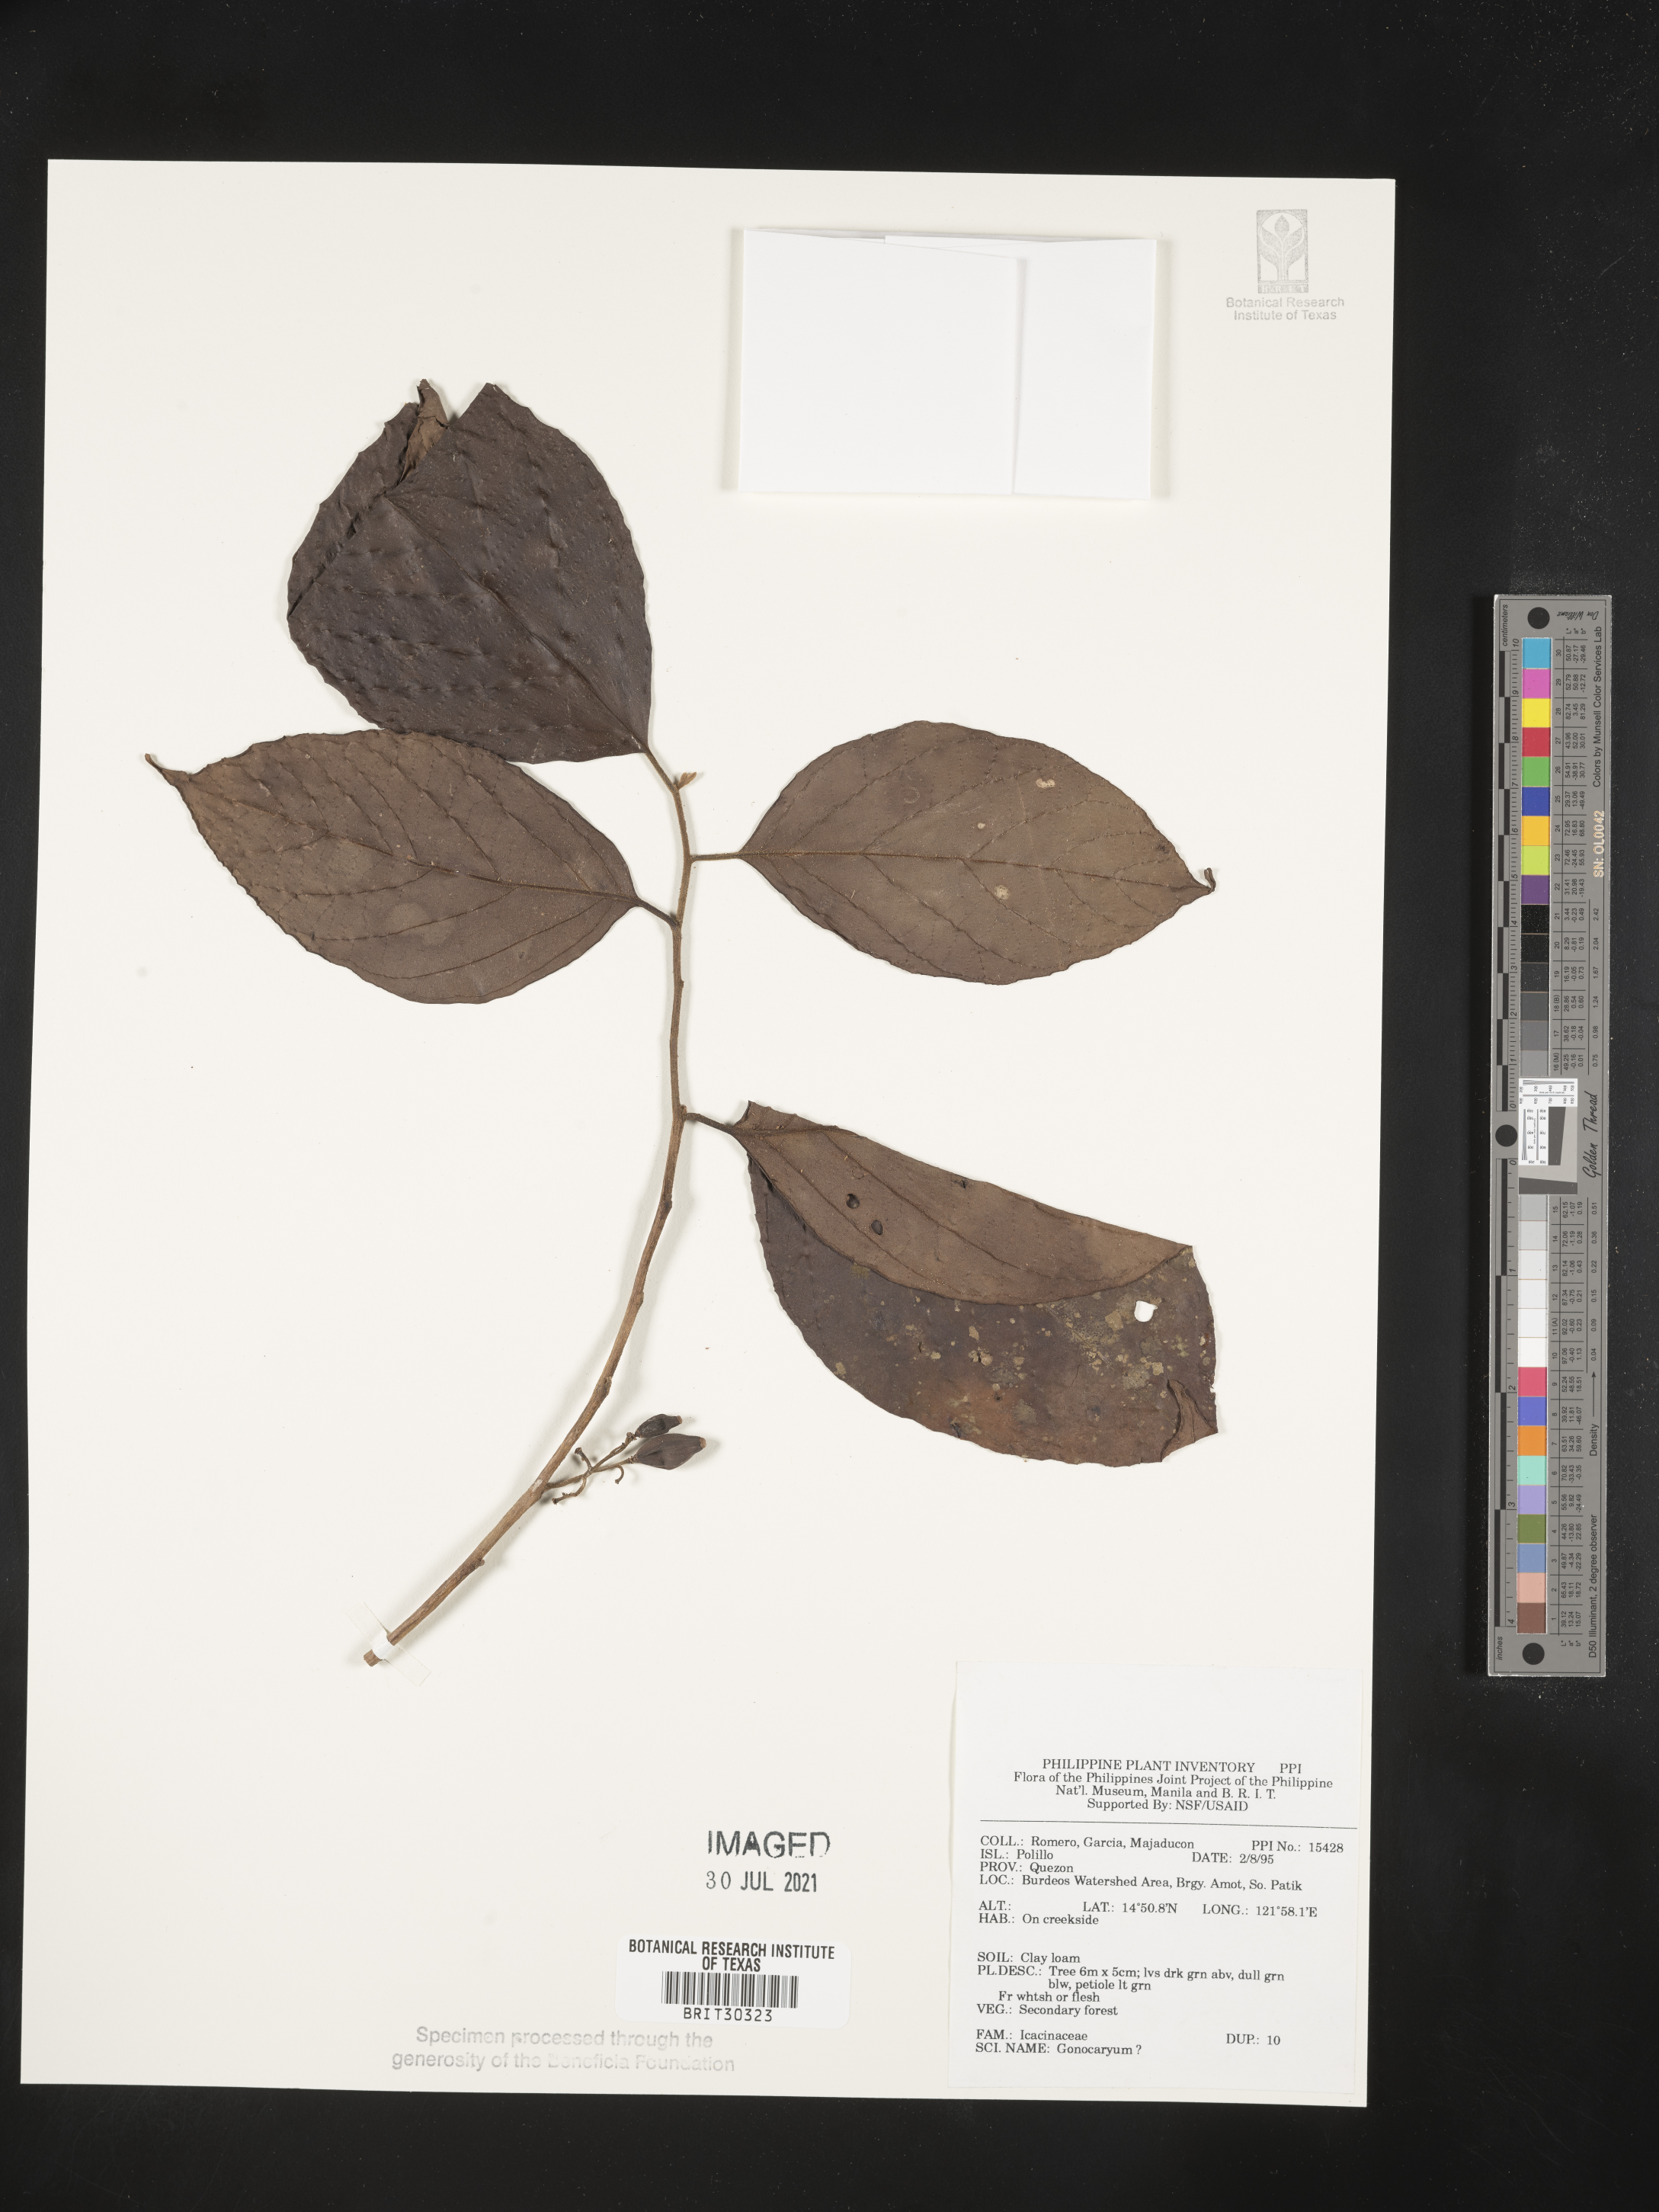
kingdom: Plantae
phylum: Tracheophyta
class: Magnoliopsida
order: Cardiopteridales
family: Cardiopteridaceae
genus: Gonocaryum
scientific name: Gonocaryum
